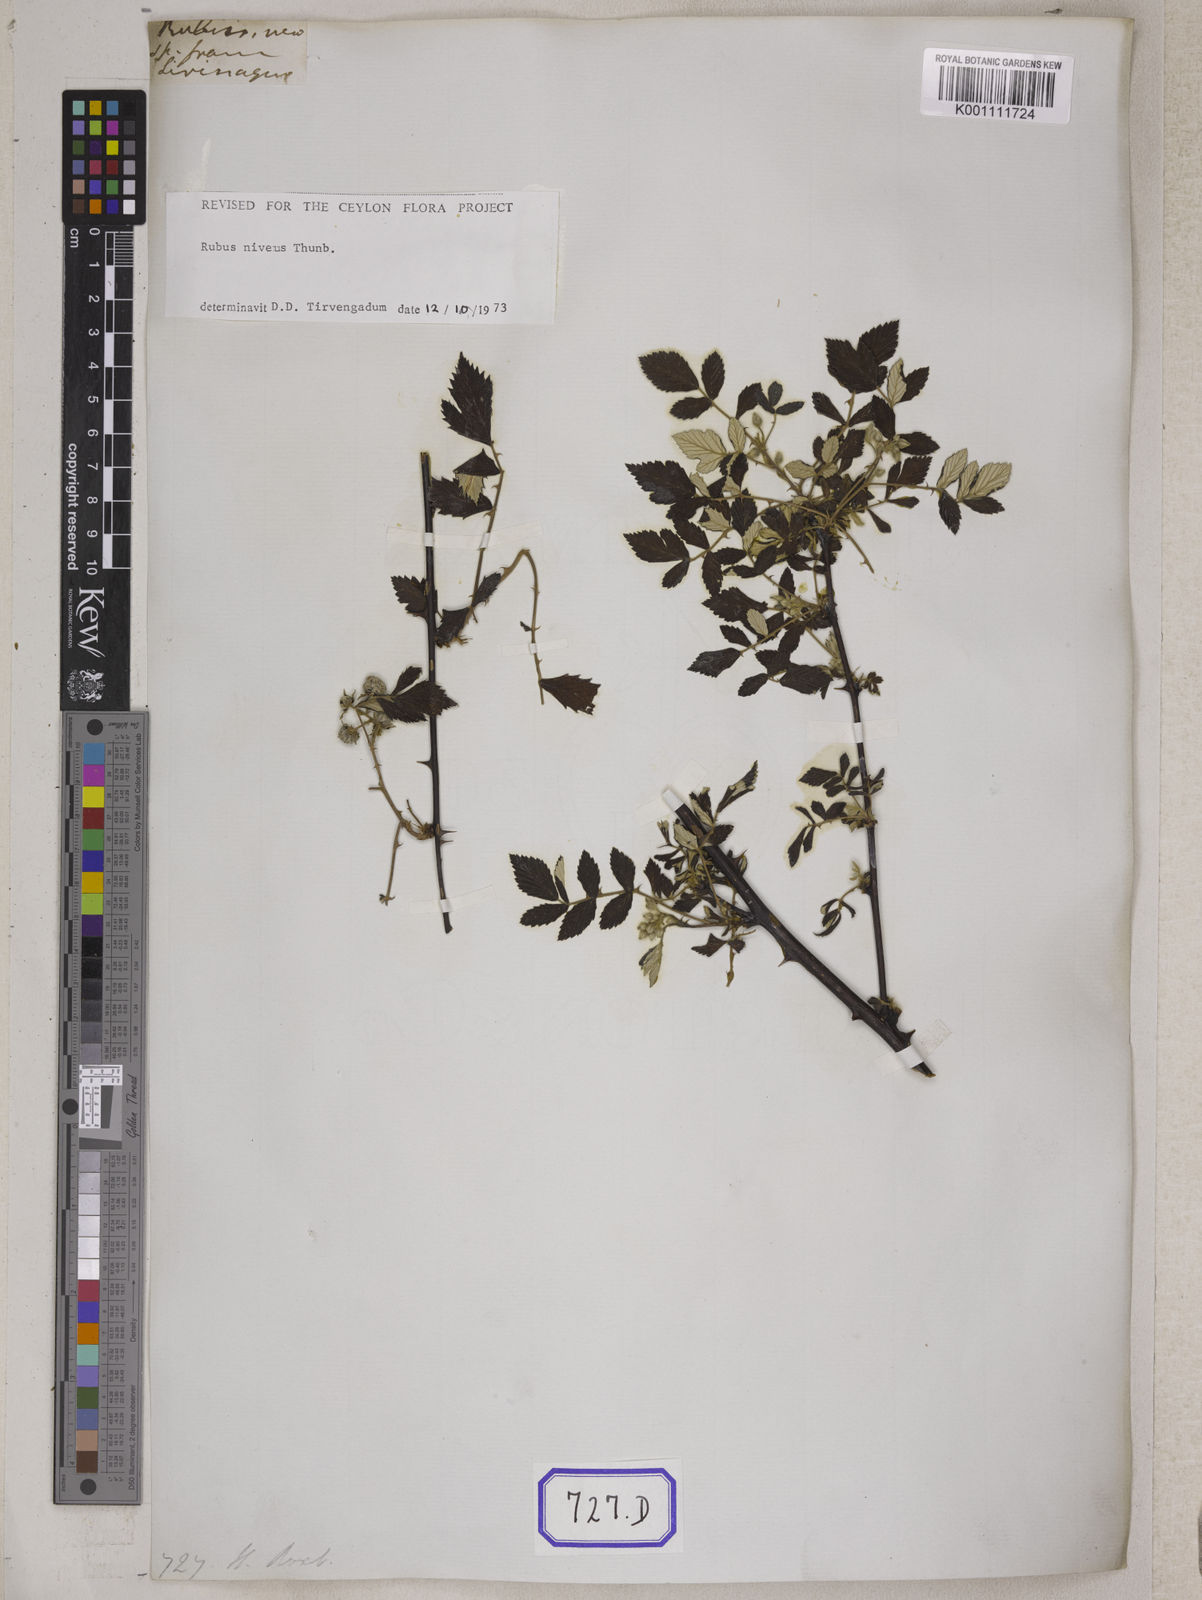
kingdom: Plantae
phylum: Tracheophyta
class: Magnoliopsida
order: Rosales
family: Rosaceae
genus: Rubus
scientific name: Rubus
